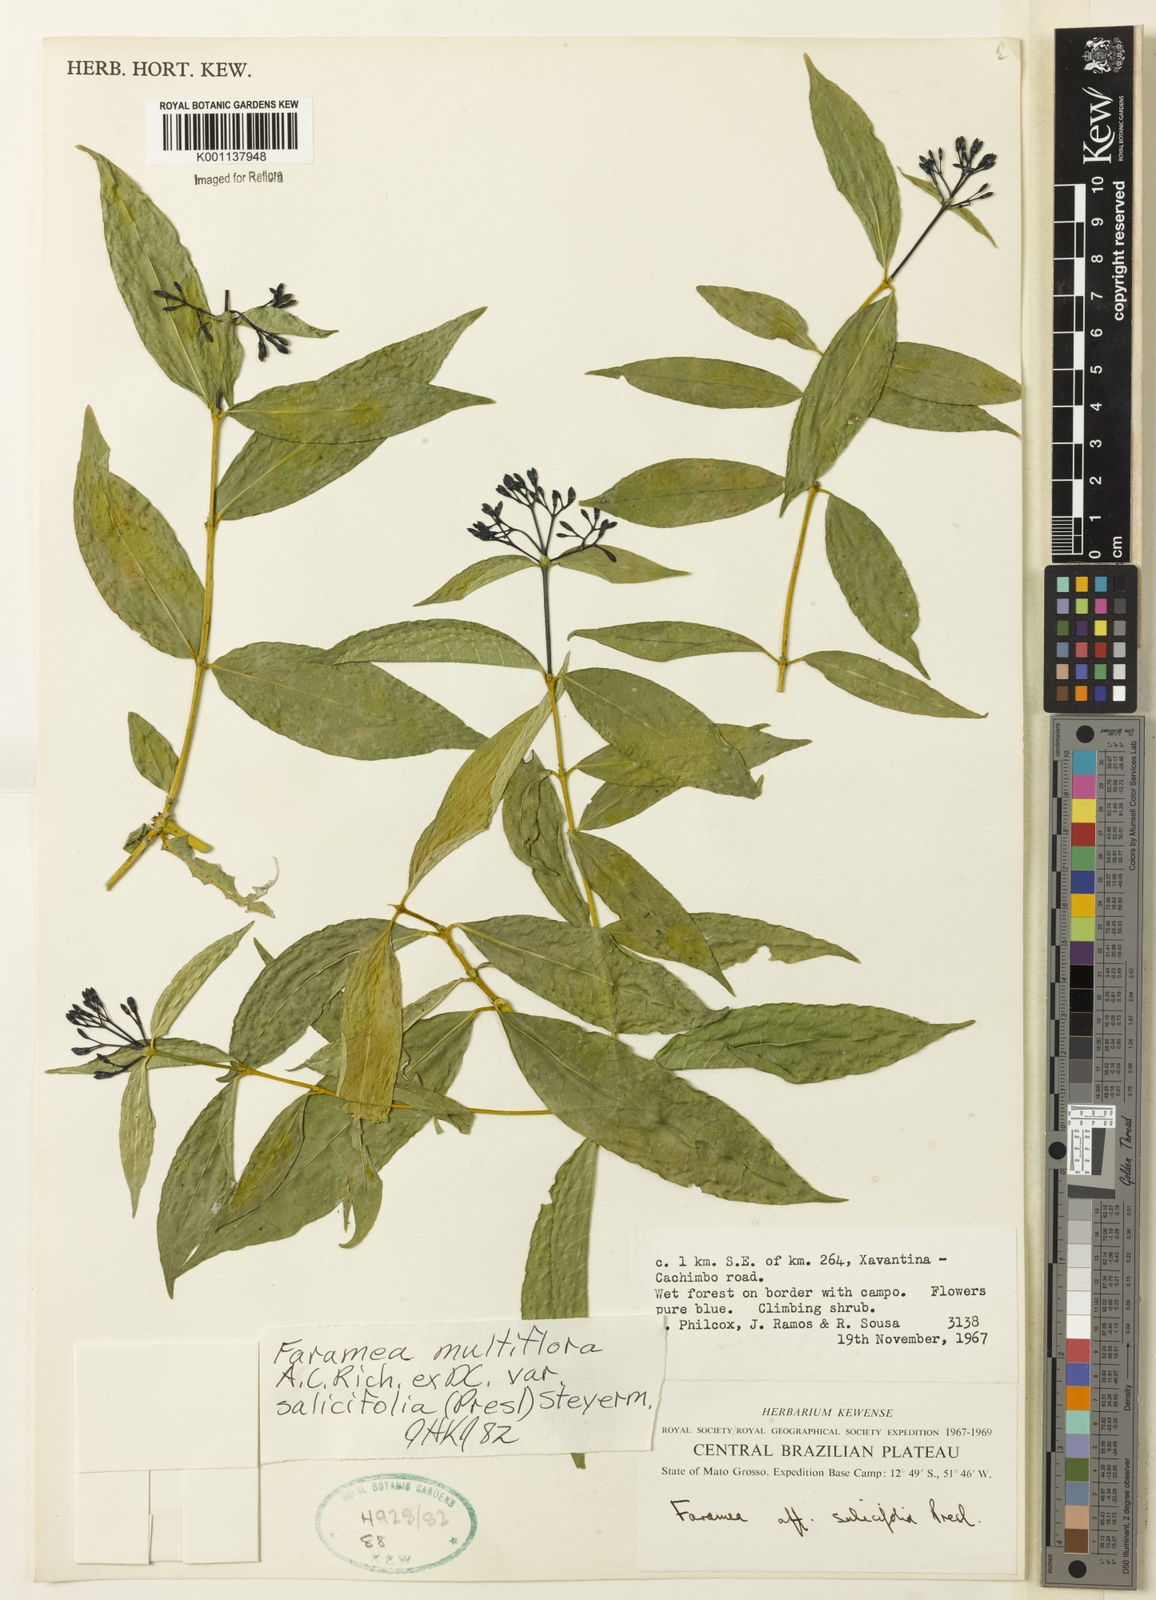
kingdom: Plantae
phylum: Tracheophyta
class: Magnoliopsida
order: Gentianales
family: Rubiaceae
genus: Faramea
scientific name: Faramea multiflora
